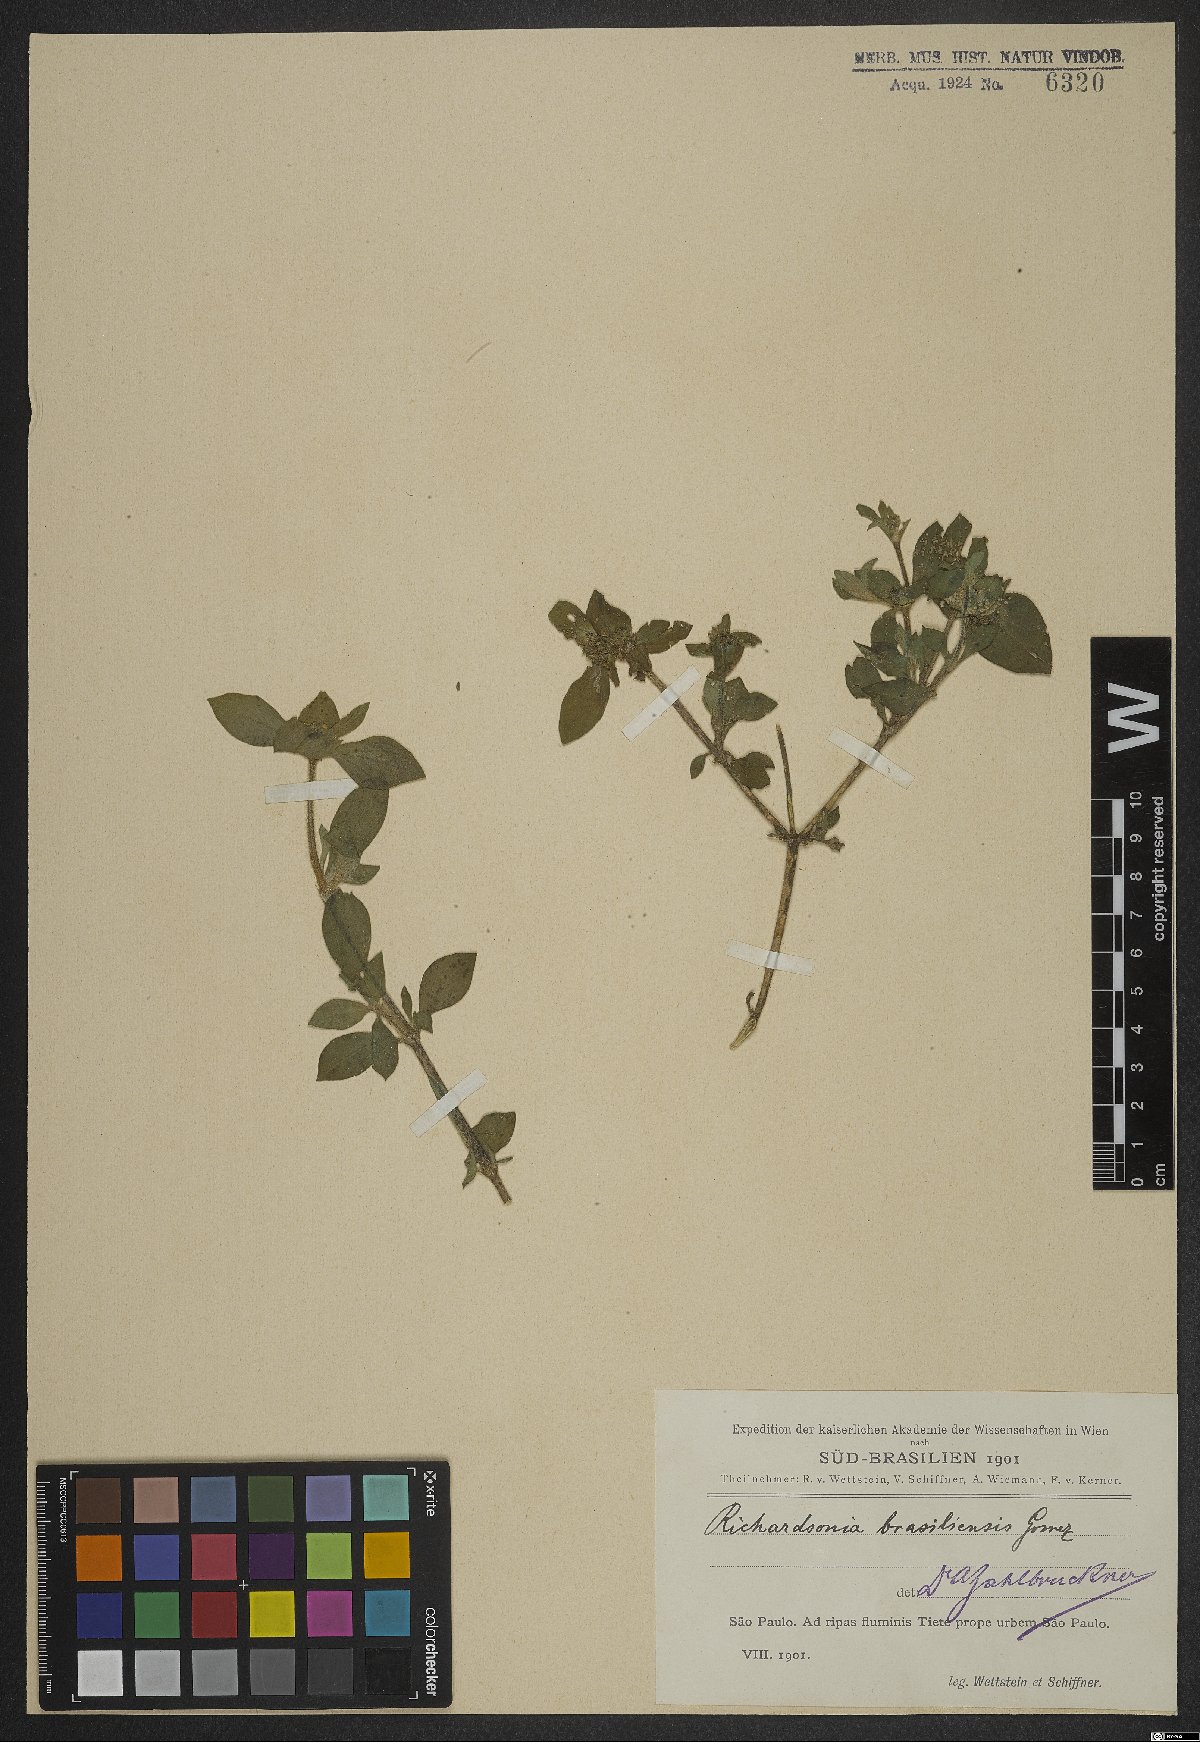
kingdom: Plantae
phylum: Tracheophyta
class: Magnoliopsida
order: Gentianales
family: Rubiaceae
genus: Richardia
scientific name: Richardia brasiliensis
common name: Tropical mexican clover
